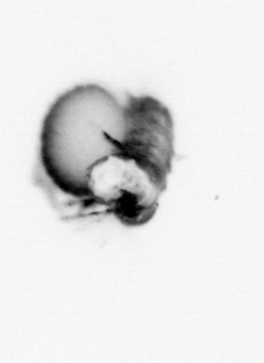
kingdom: Animalia
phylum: Annelida
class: Polychaeta
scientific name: Polychaeta
